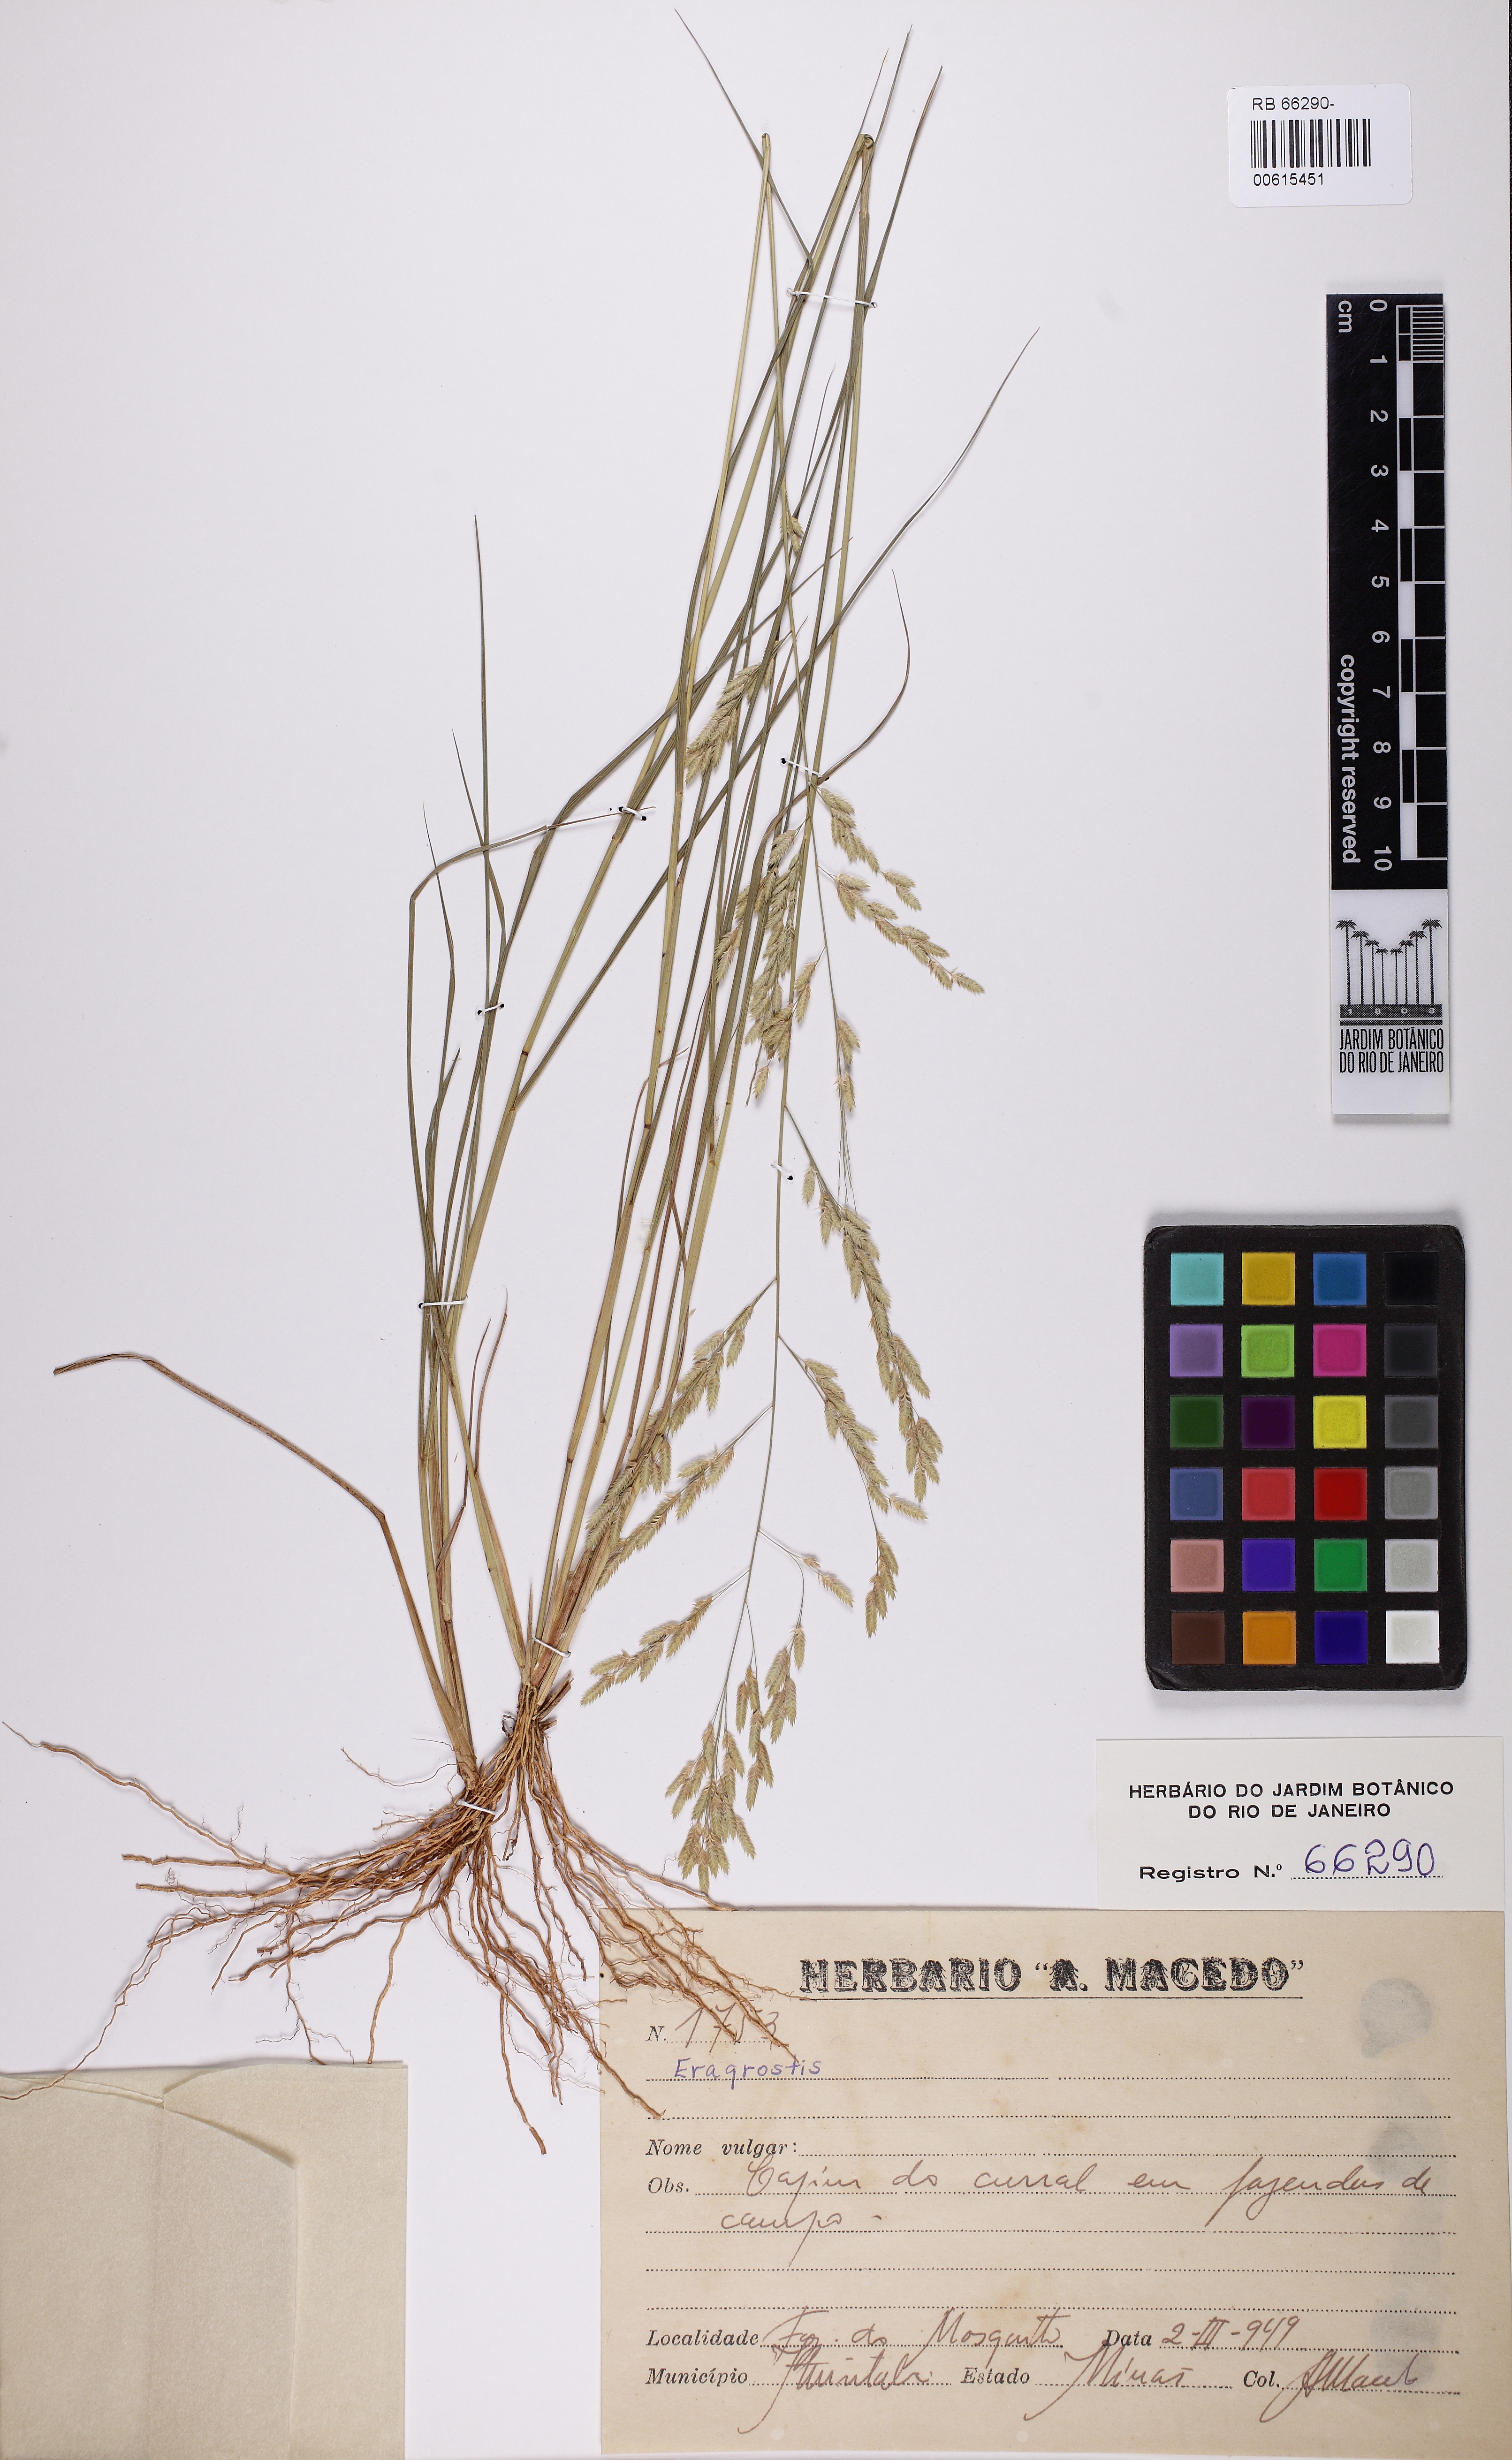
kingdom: Plantae
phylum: Tracheophyta
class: Liliopsida
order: Poales
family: Poaceae
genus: Eragrostis
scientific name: Eragrostis
